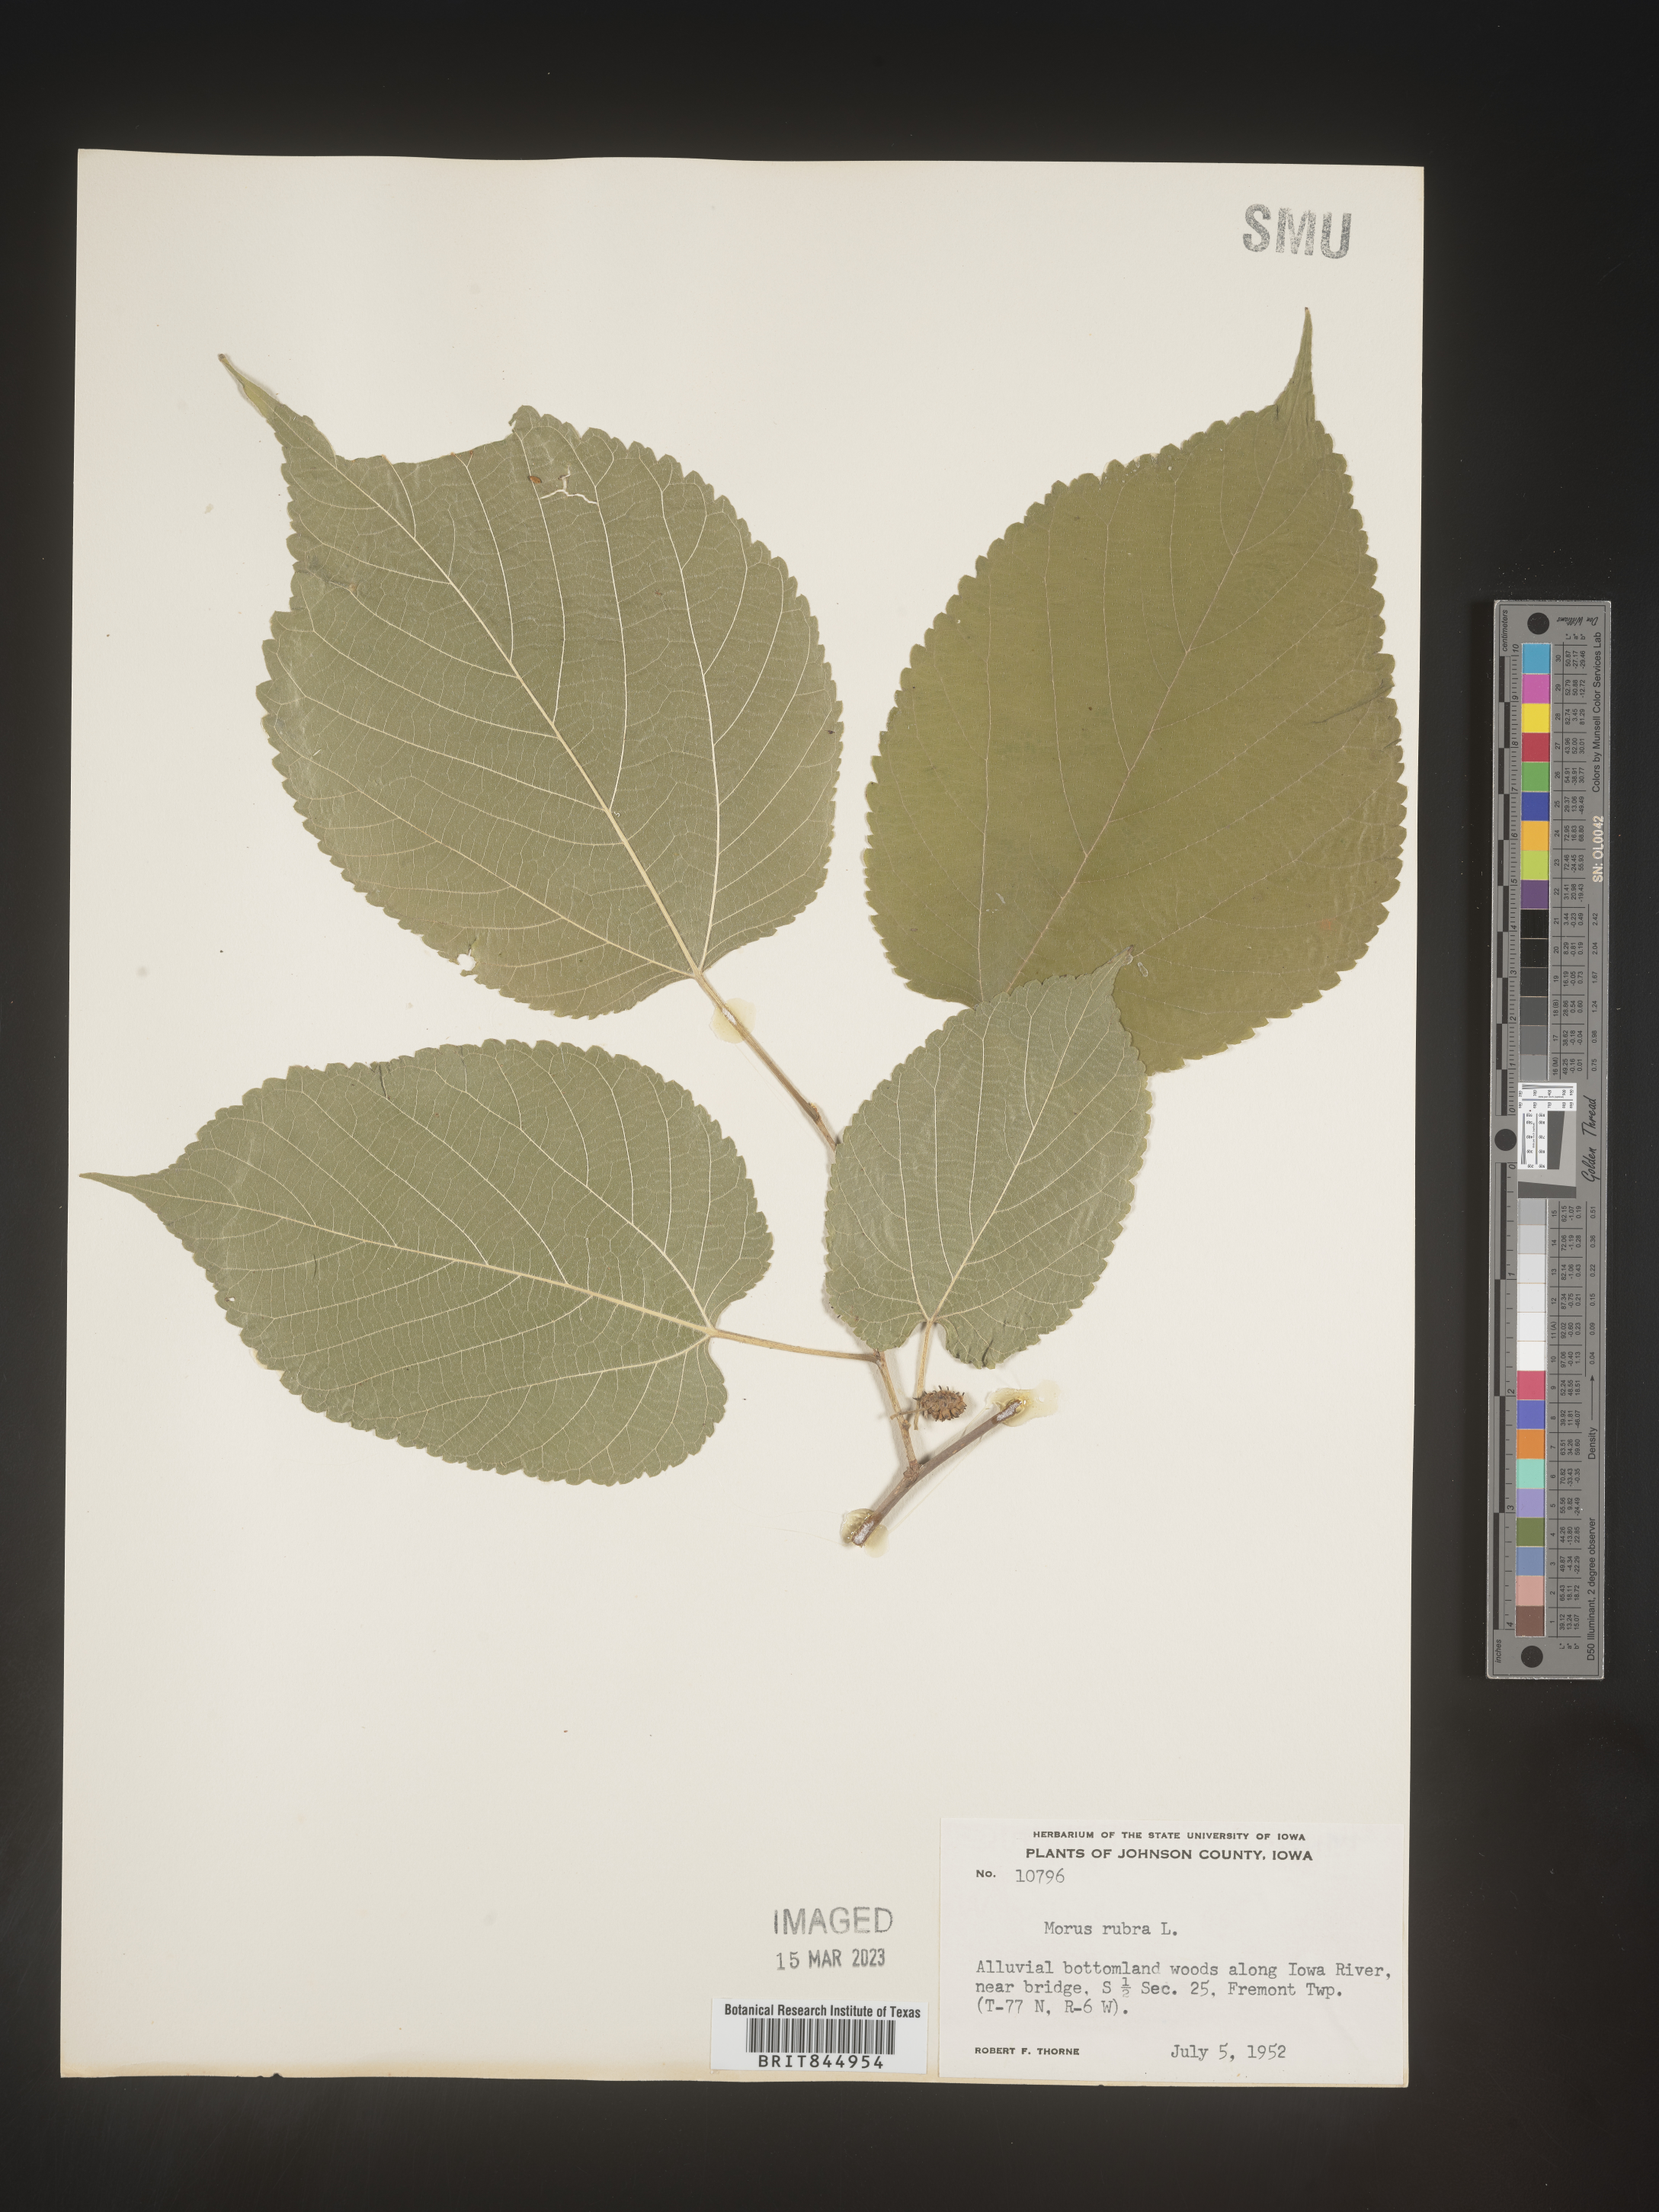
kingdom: Plantae
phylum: Tracheophyta
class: Magnoliopsida
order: Rosales
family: Moraceae
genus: Morus
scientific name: Morus rubra
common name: Red mulberry
